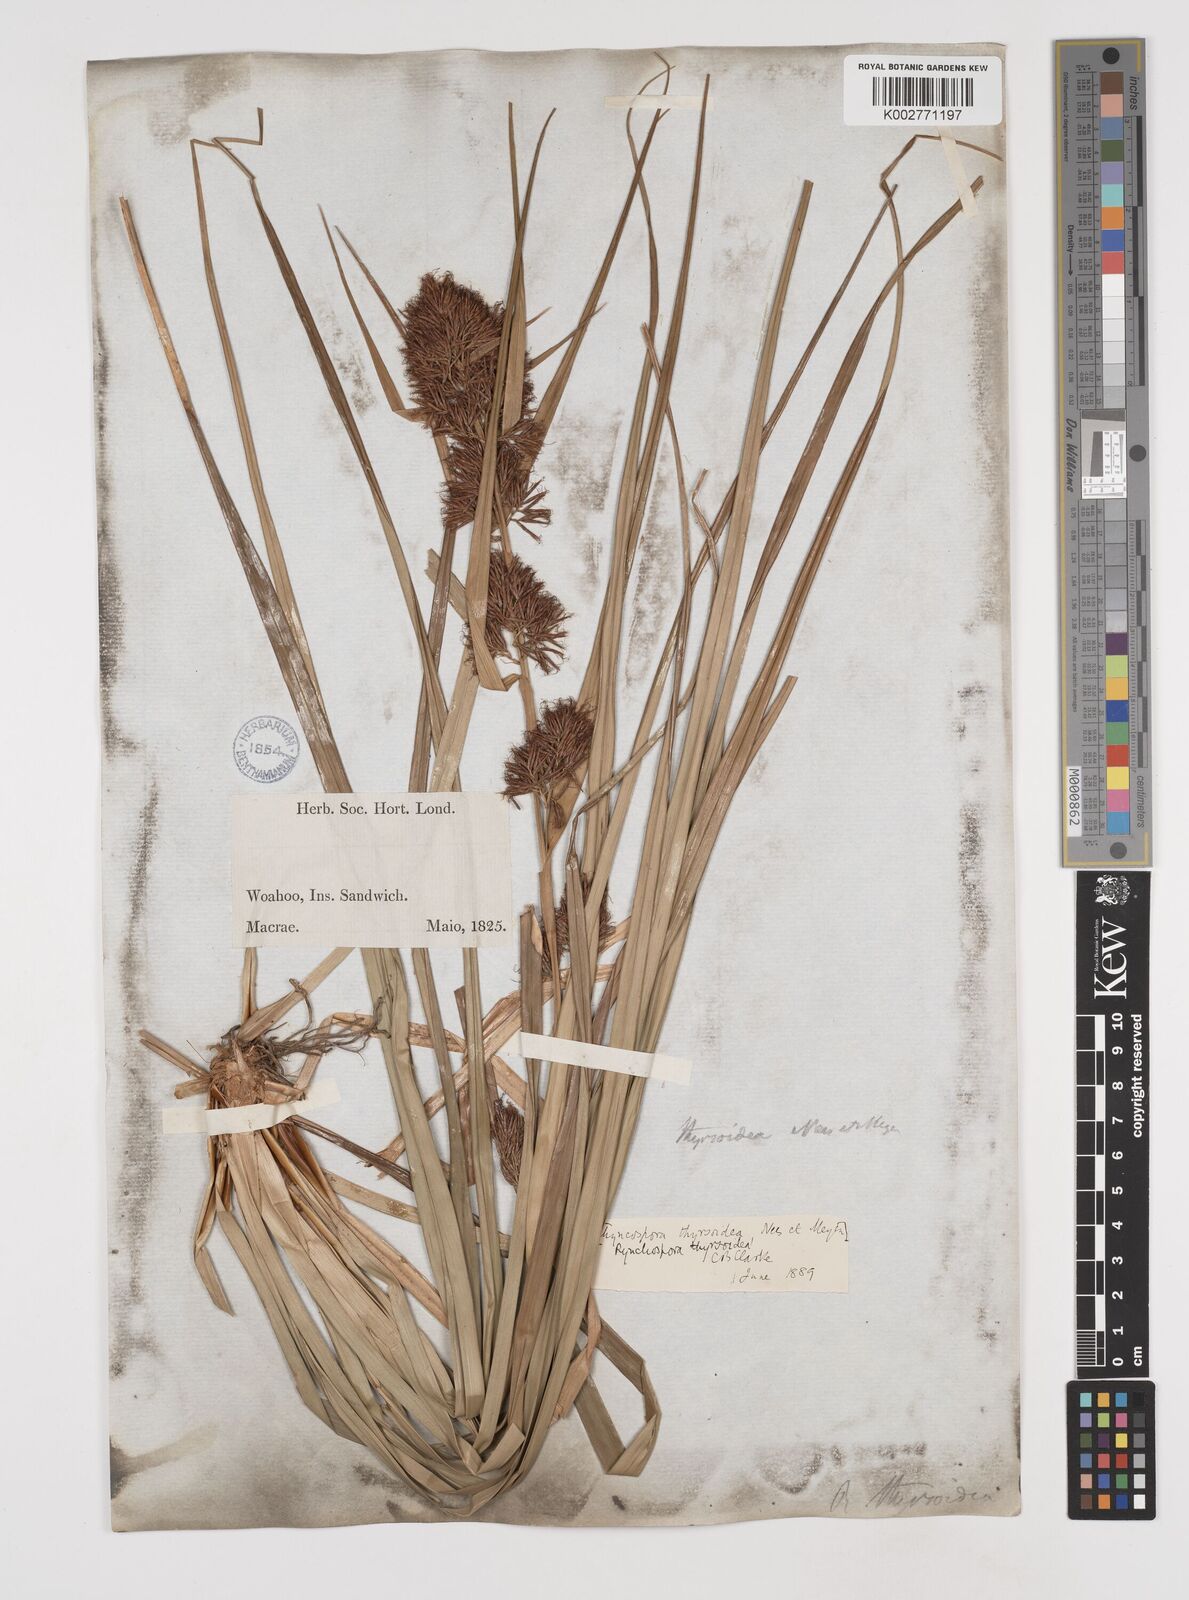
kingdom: Plantae
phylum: Tracheophyta
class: Liliopsida
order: Poales
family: Cyperaceae
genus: Rhynchospora
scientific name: Rhynchospora sclerioides
